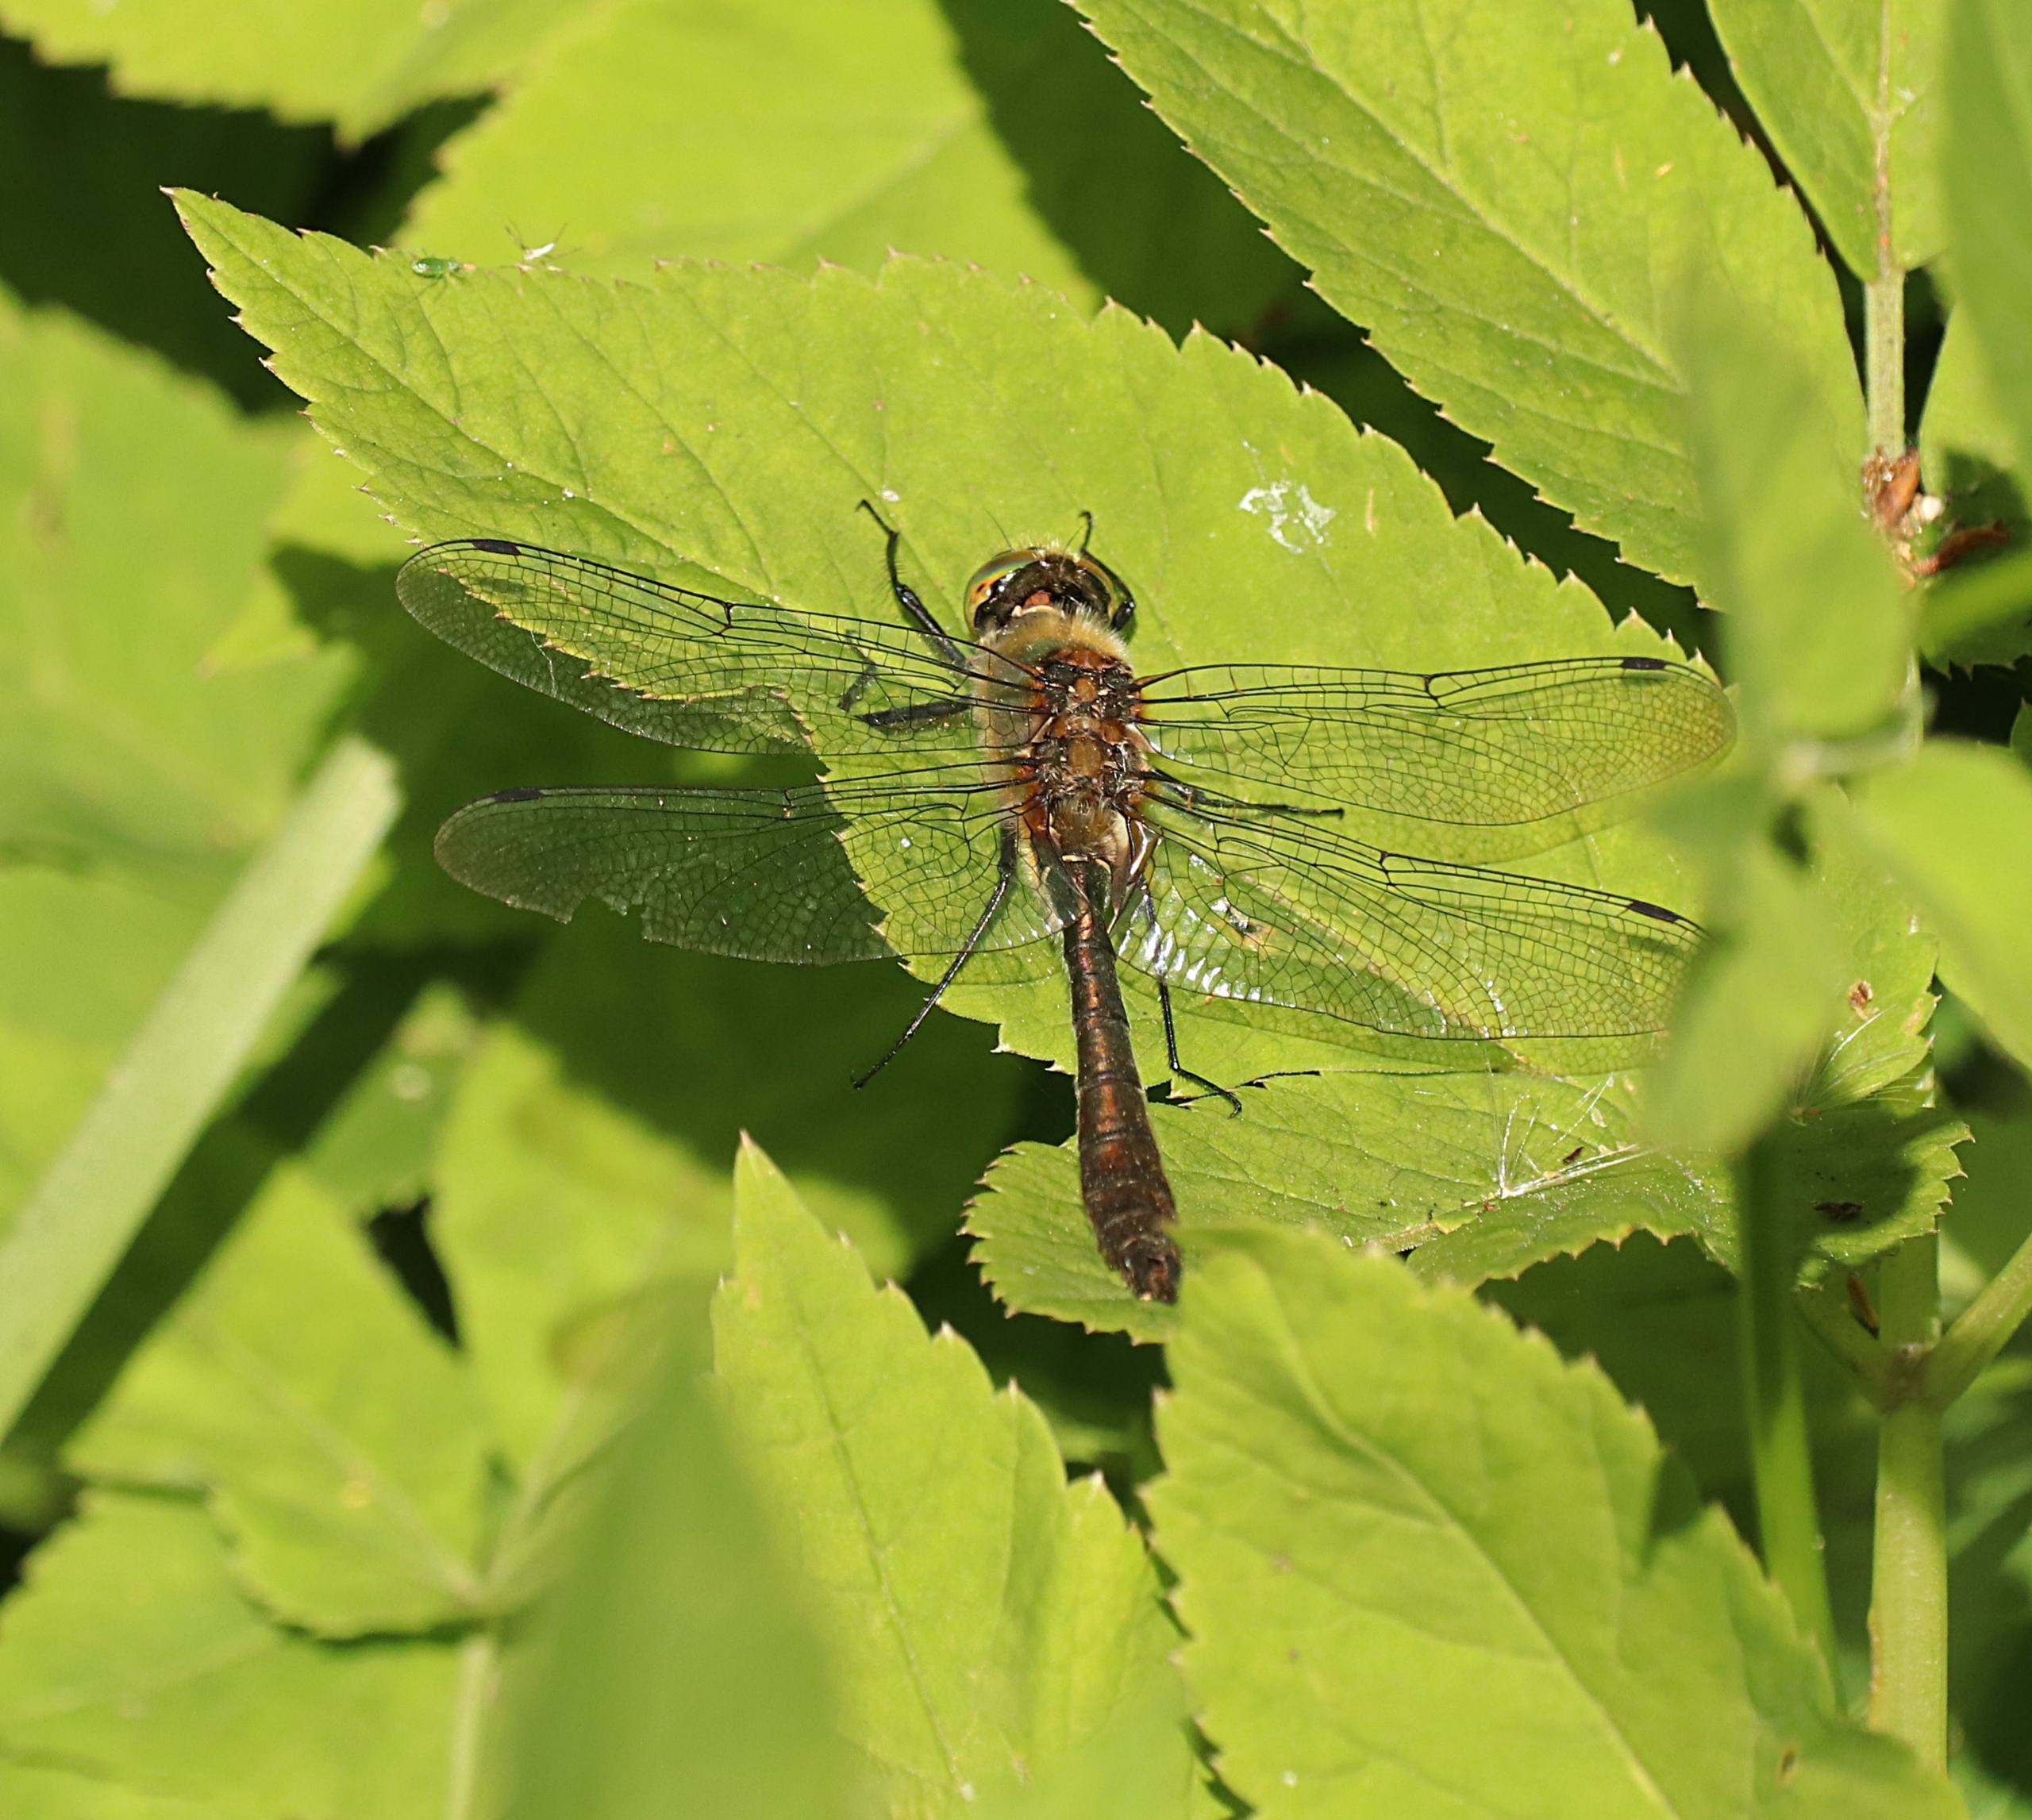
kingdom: Animalia
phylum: Arthropoda
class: Insecta
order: Odonata
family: Corduliidae
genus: Cordulia
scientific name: Cordulia aenea
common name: Grøn smaragdlibel
